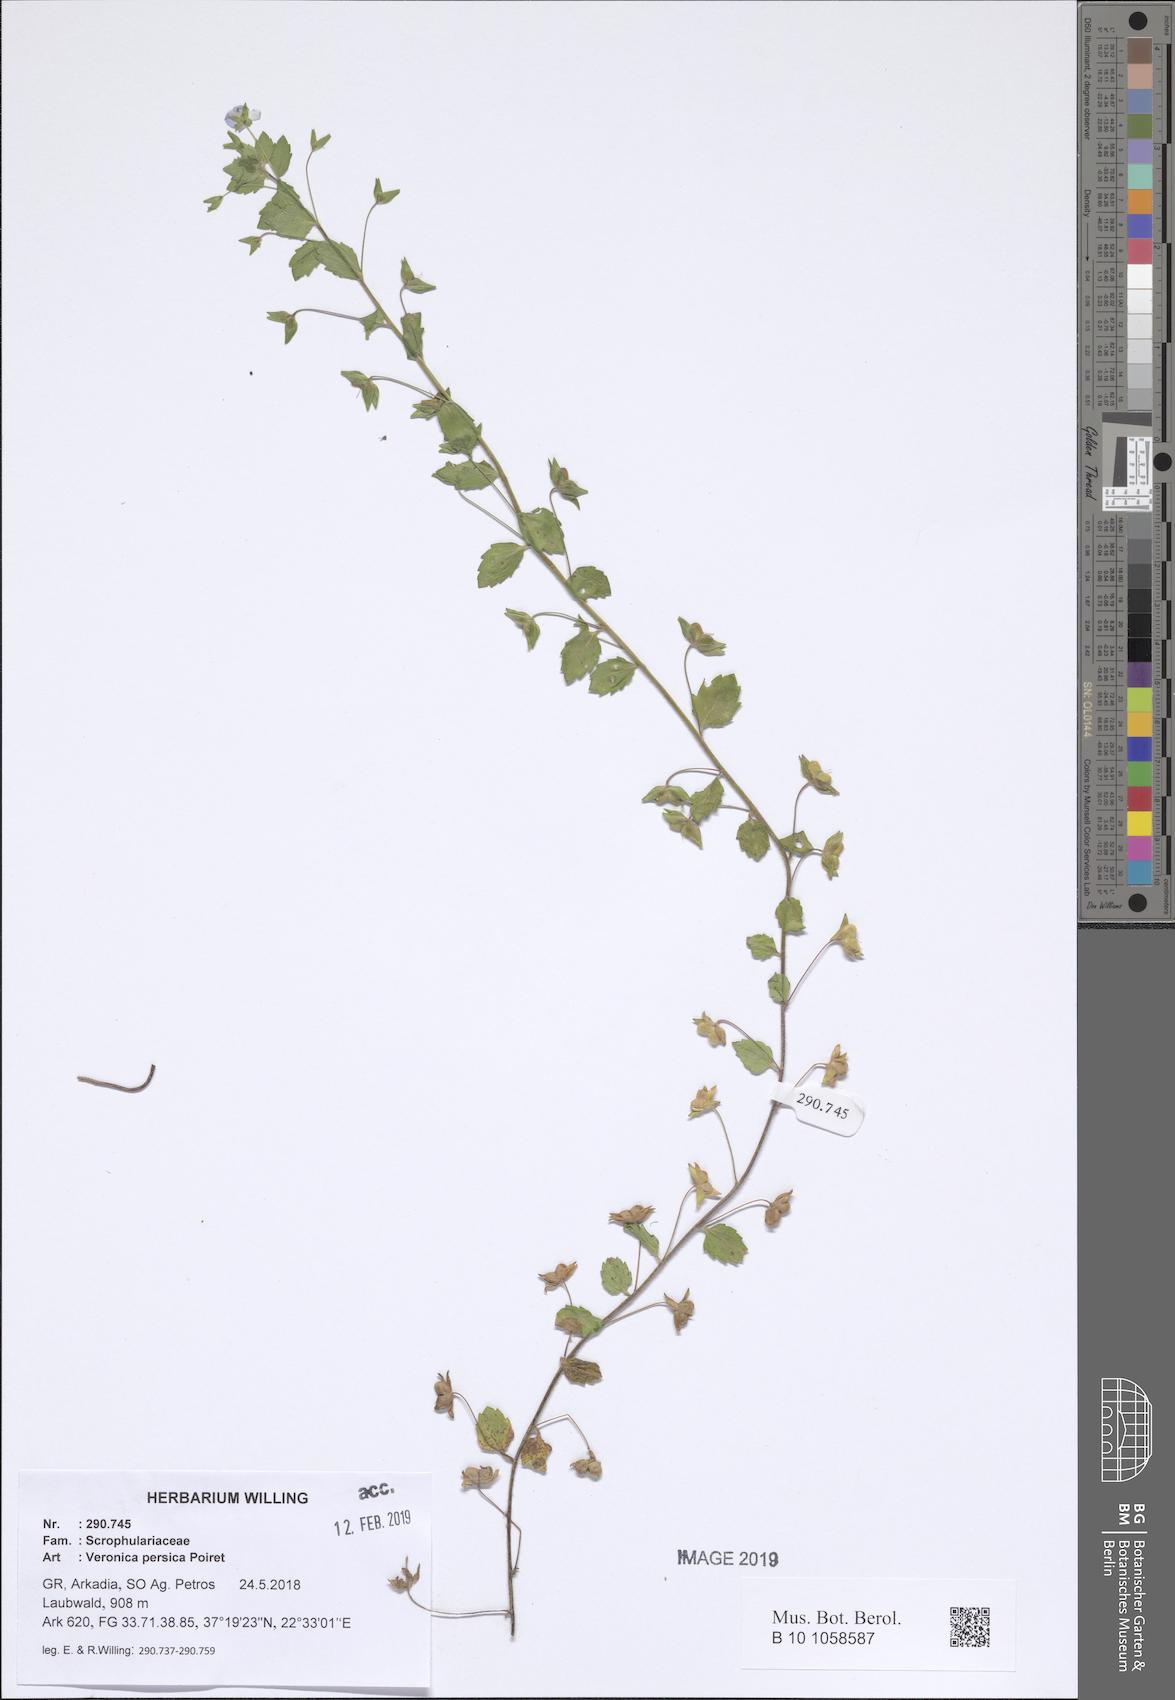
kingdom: Plantae
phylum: Tracheophyta
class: Magnoliopsida
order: Lamiales
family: Plantaginaceae
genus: Veronica
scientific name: Veronica persica
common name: Common field-speedwell
